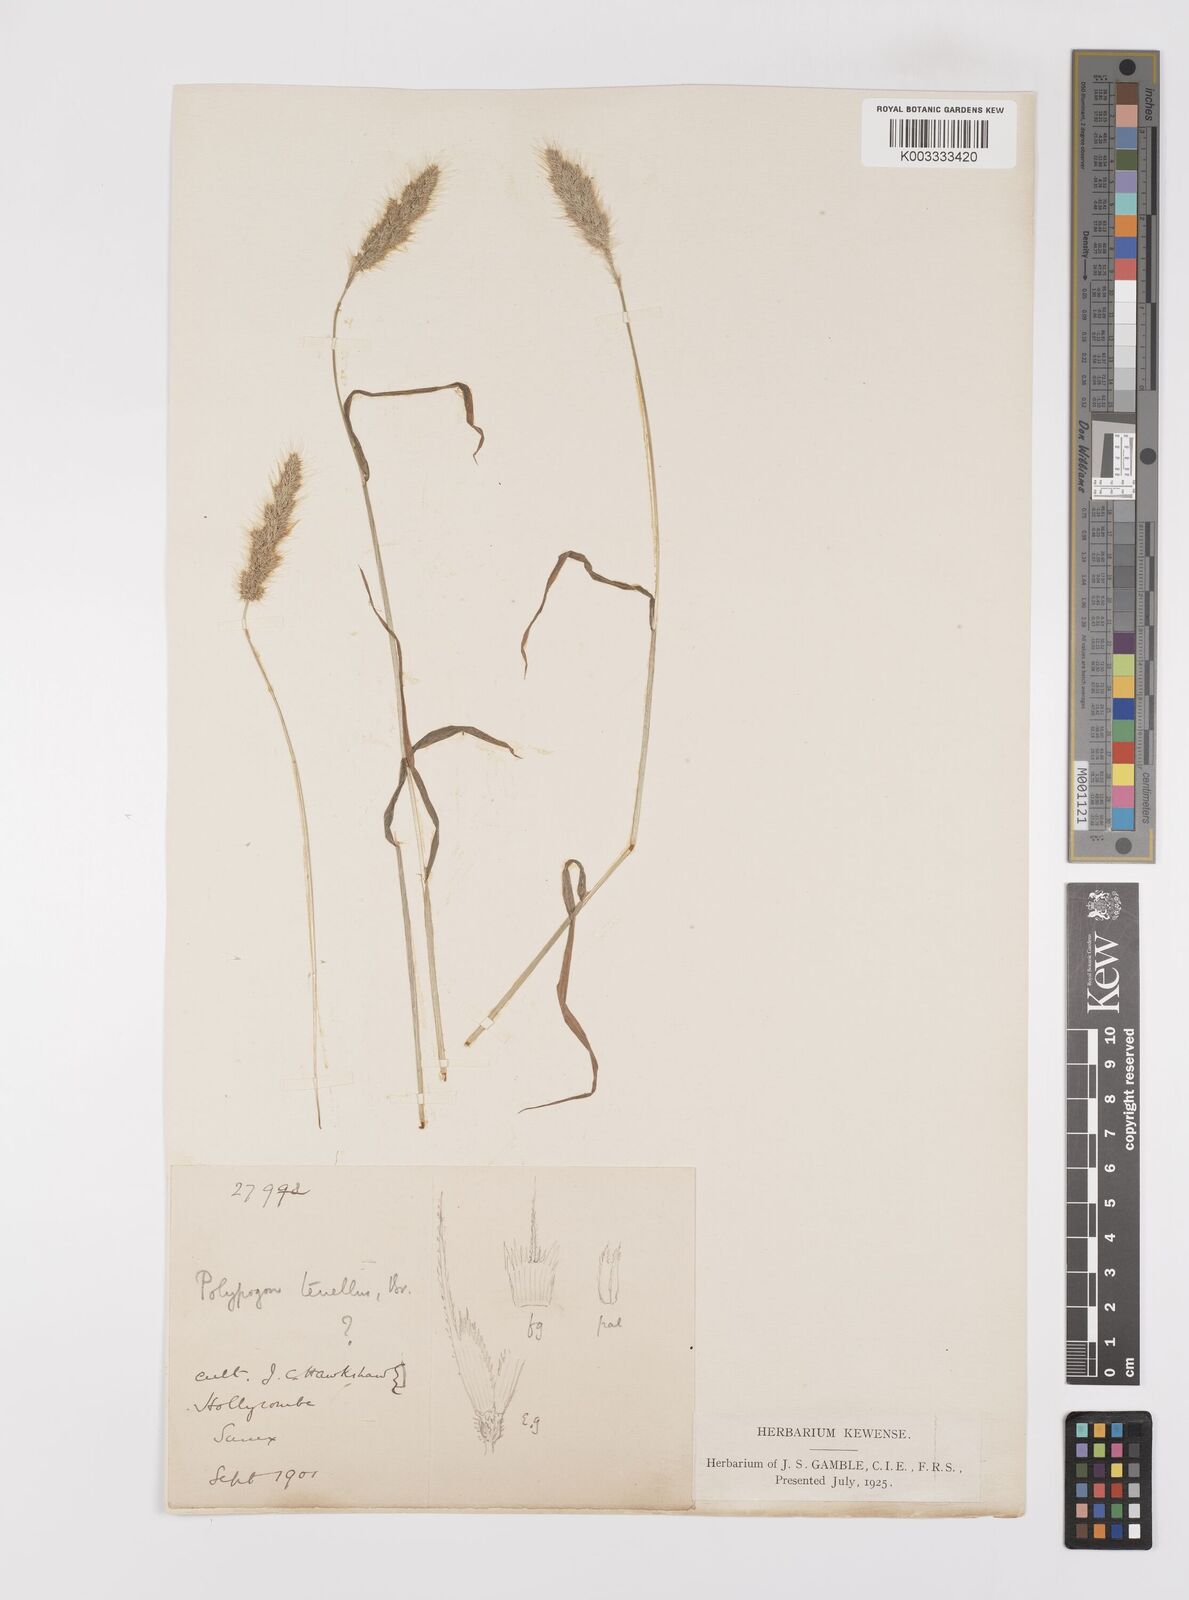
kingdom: Plantae
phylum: Tracheophyta
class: Liliopsida
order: Poales
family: Poaceae
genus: Polypogon
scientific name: Polypogon monspeliensis
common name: Annual rabbitsfoot grass
